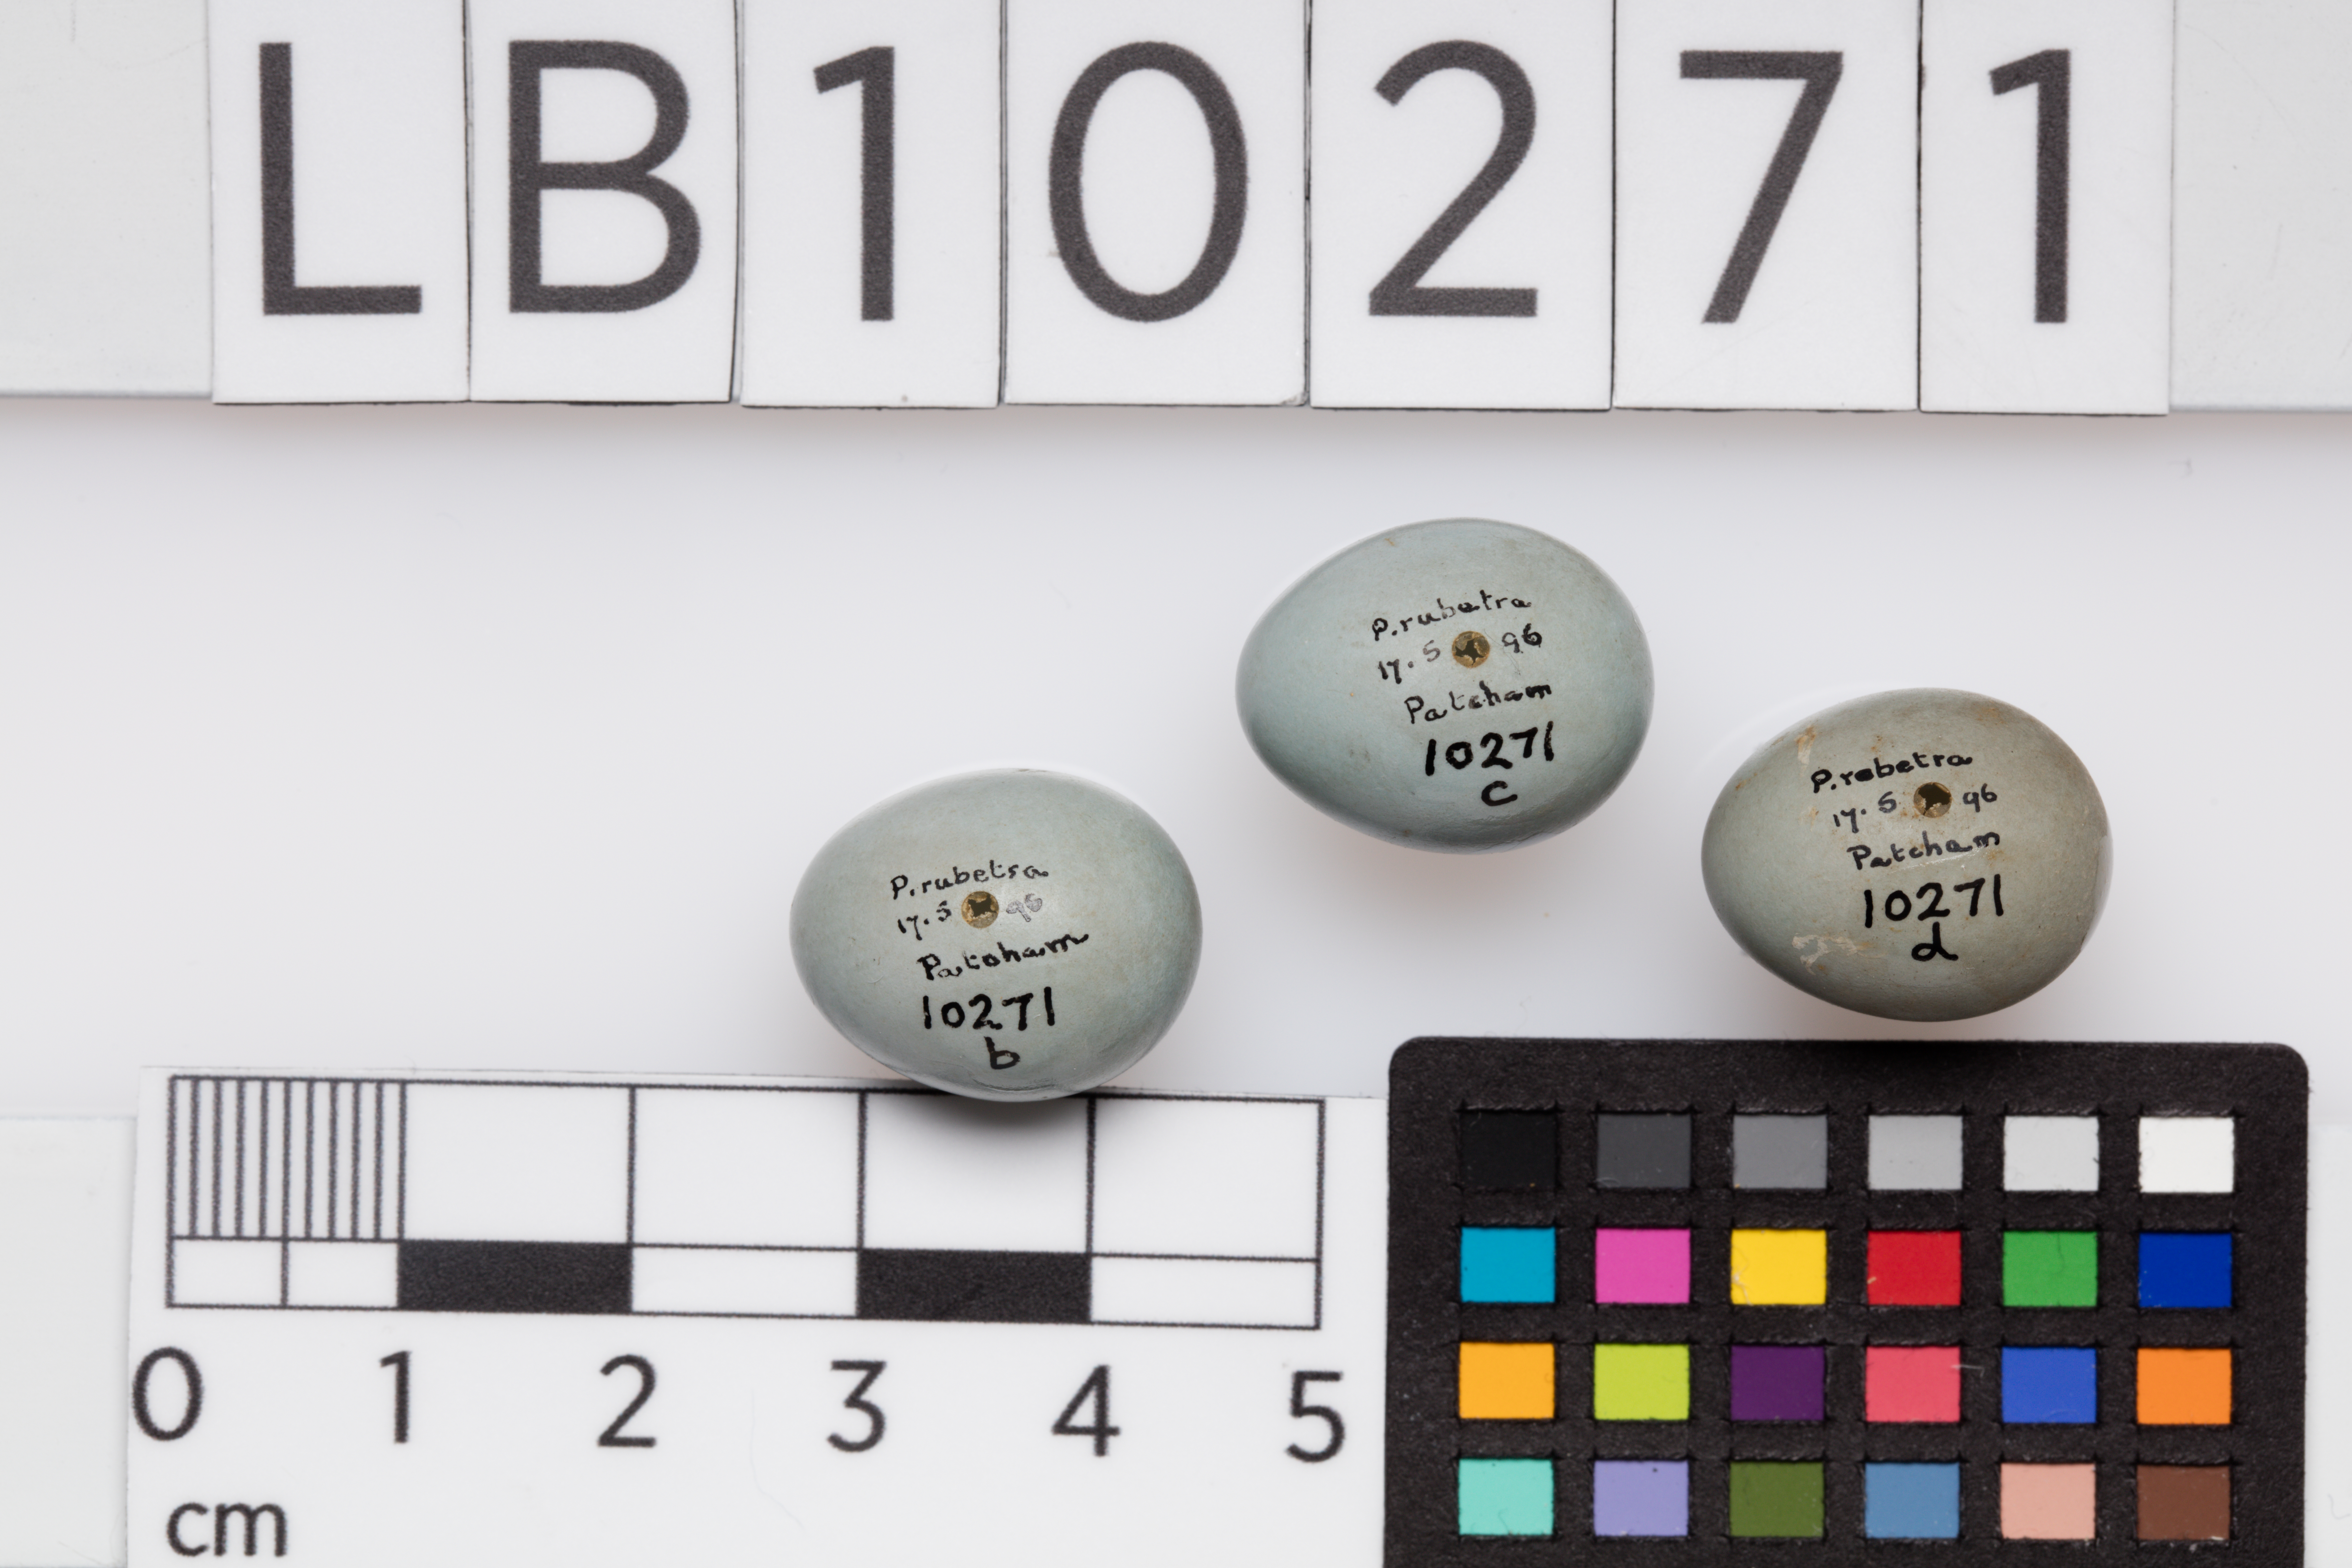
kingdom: Animalia
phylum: Chordata
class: Aves
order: Passeriformes
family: Muscicapidae
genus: Saxicola
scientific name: Saxicola rubetra
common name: Whinchat
